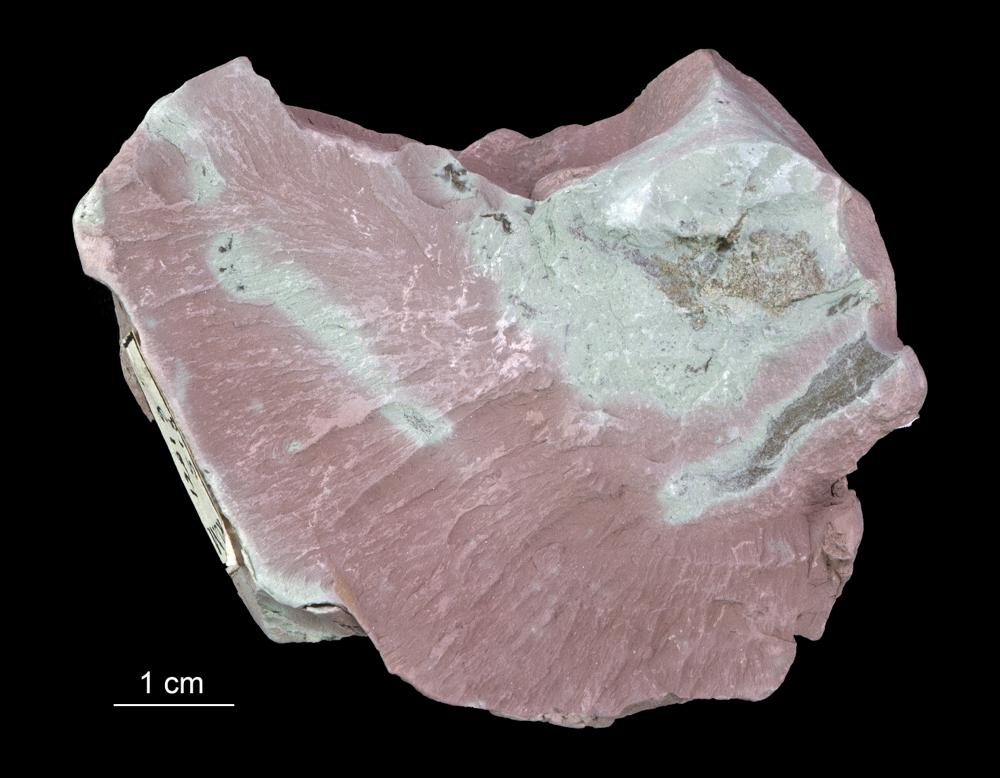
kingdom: Chromista
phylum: Foraminifera
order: Astrorhizida
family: Hyperamminidae
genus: Platysolenites
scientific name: Platysolenites antiquissimus
